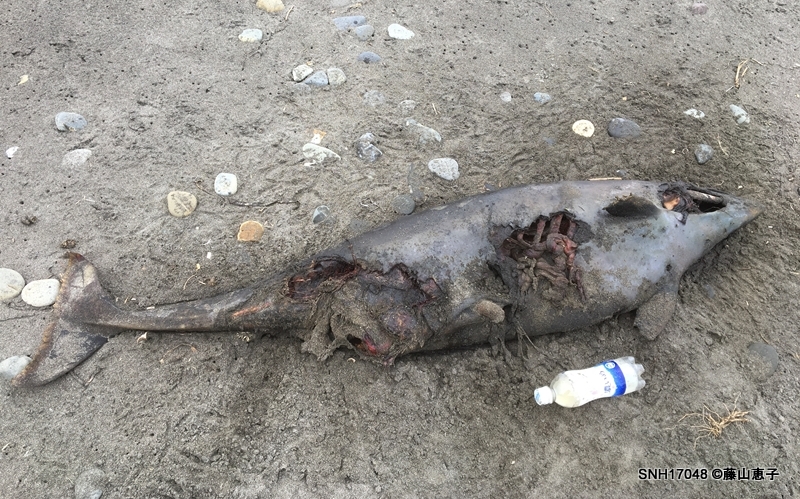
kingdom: Animalia
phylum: Chordata
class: Mammalia
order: Cetacea
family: Phocoenidae
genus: Phocoena
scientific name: Phocoena phocoena
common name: Harbour porpoise
